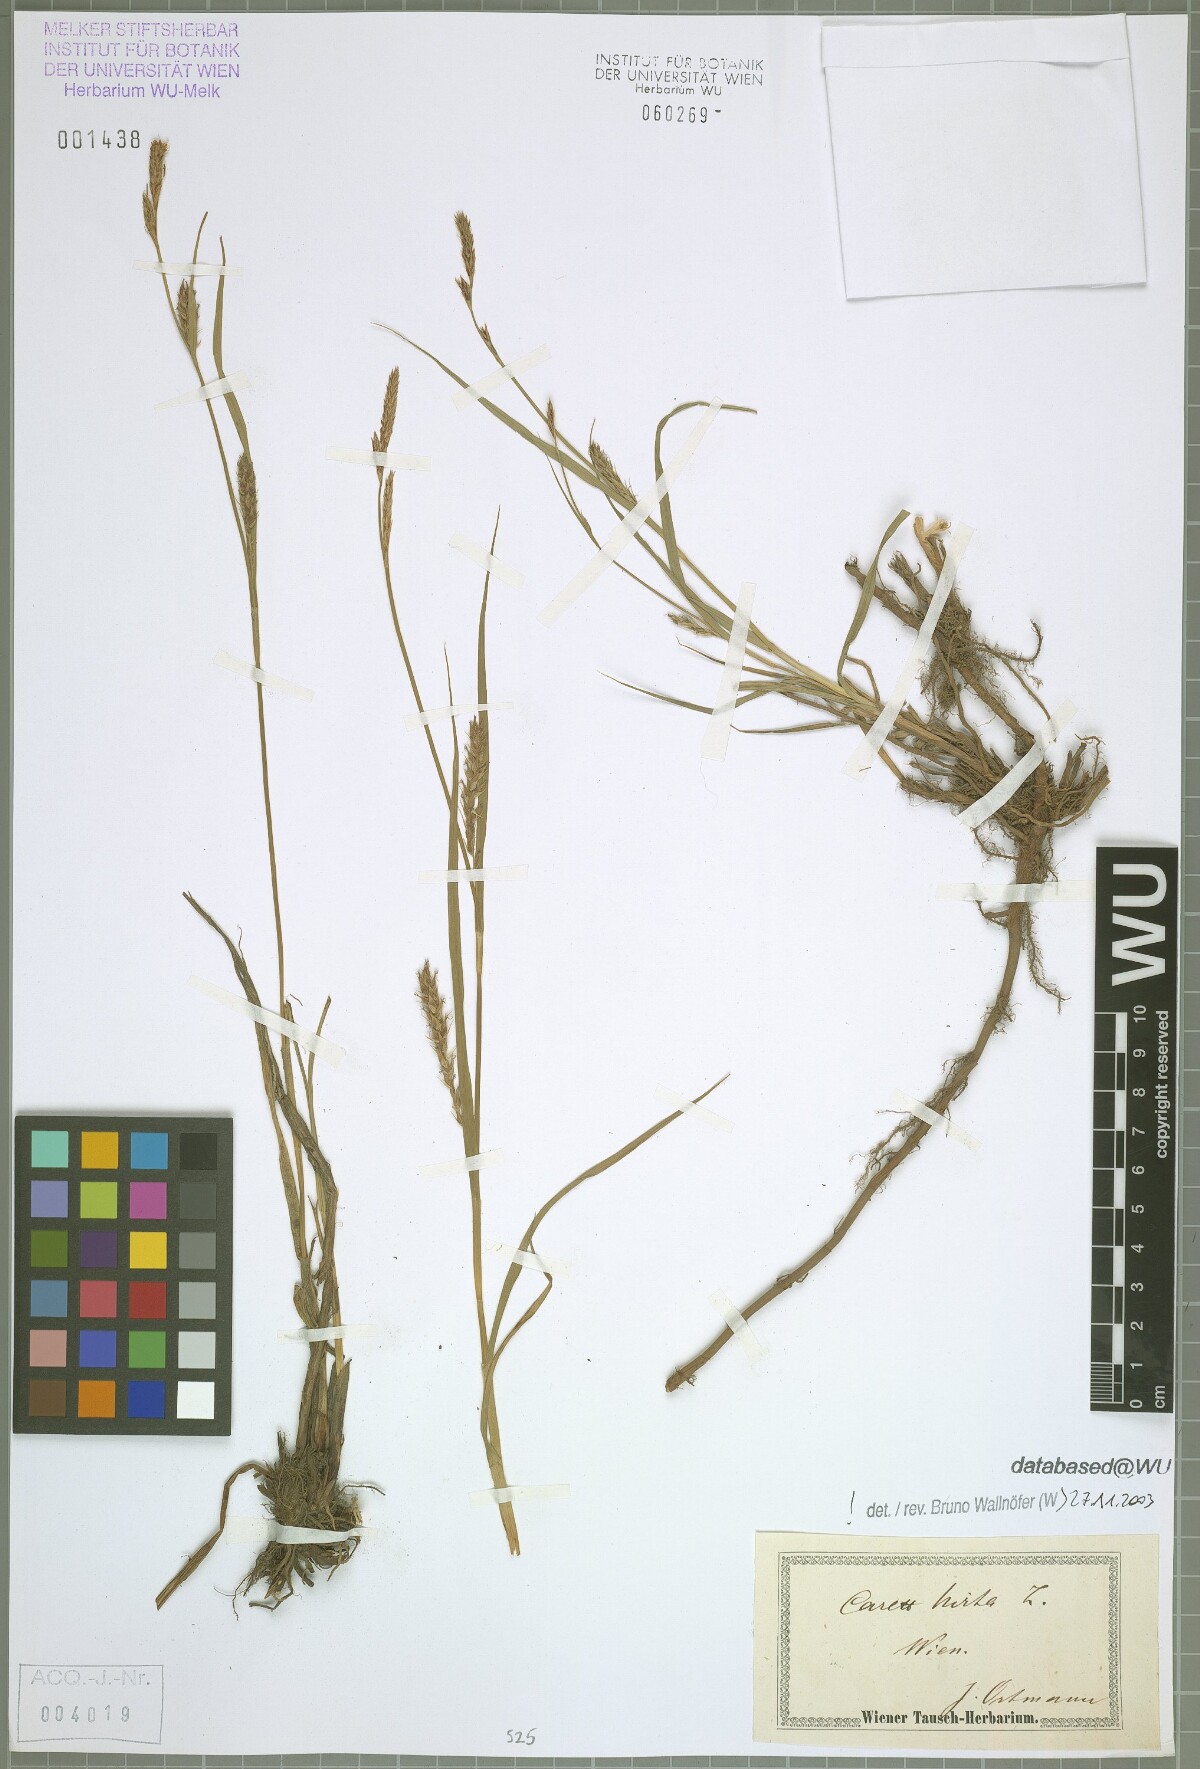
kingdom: Plantae
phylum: Tracheophyta
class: Liliopsida
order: Poales
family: Cyperaceae
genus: Carex
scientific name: Carex hirta
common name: Hairy sedge
